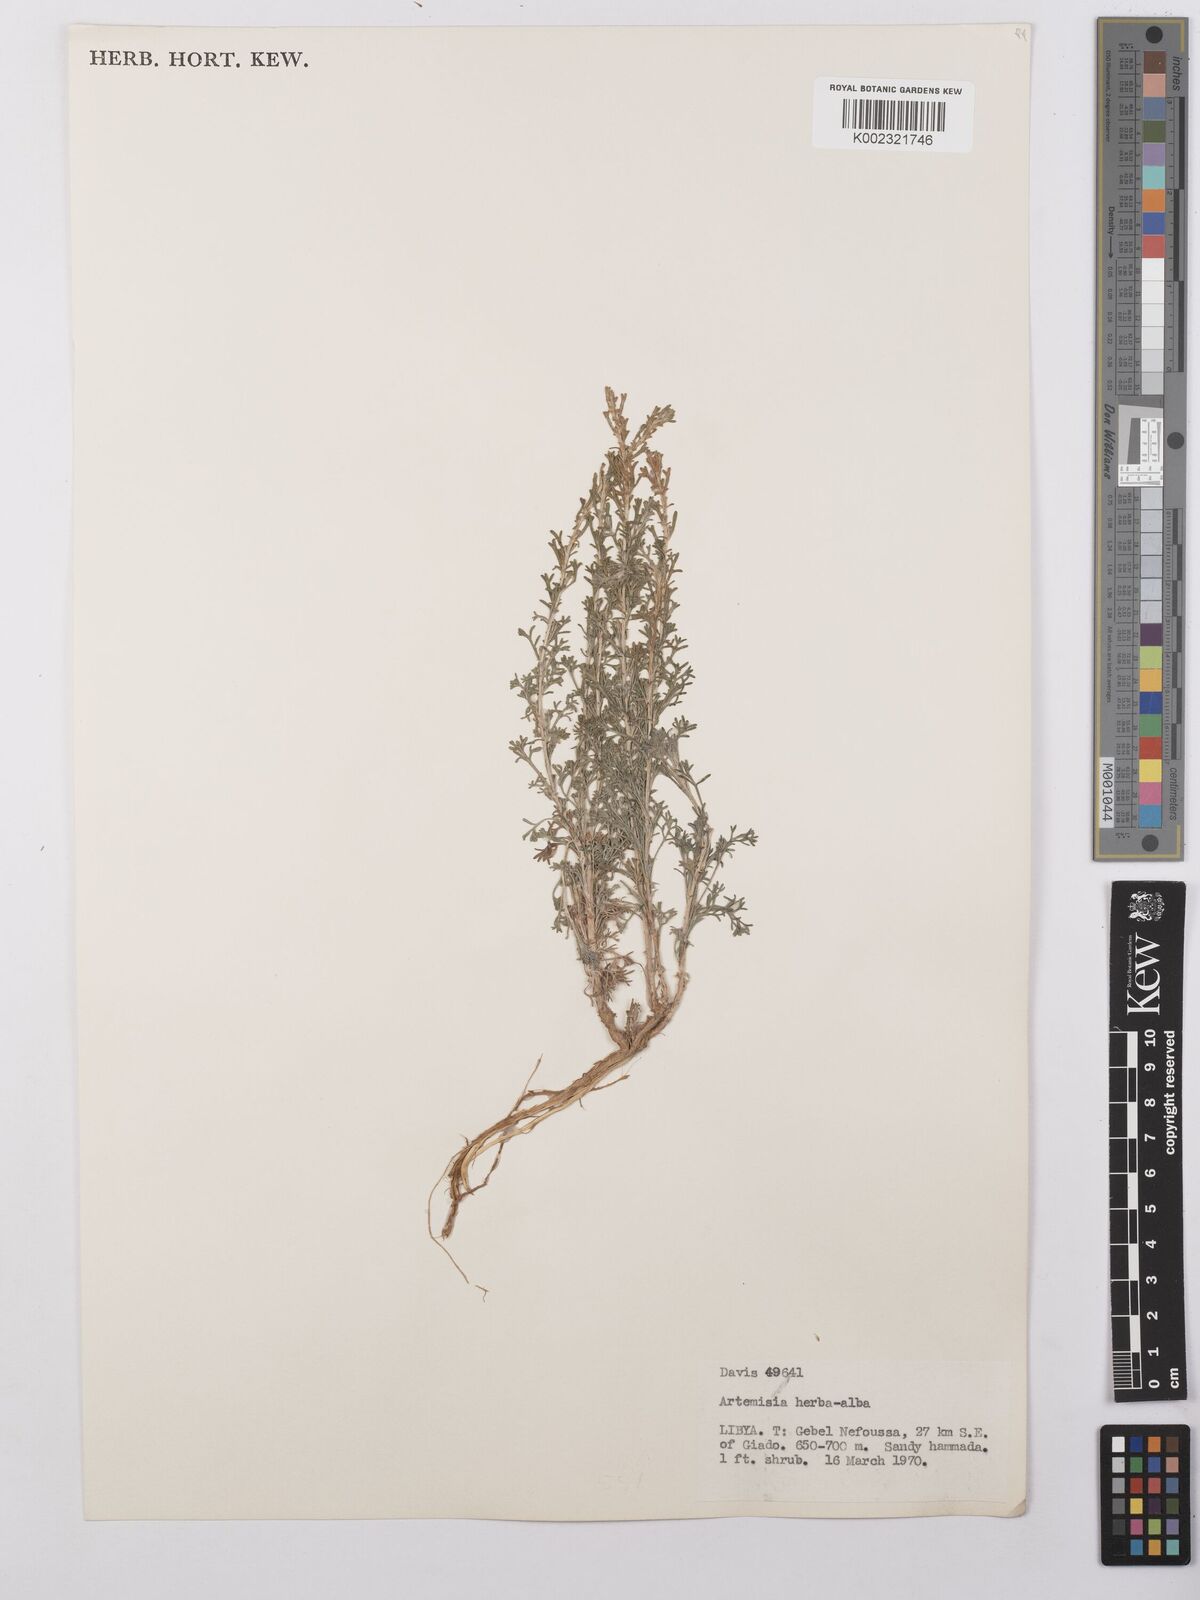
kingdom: Plantae
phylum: Tracheophyta
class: Magnoliopsida
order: Asterales
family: Asteraceae
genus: Artemisia
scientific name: Artemisia herba-alba
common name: White wormwood
